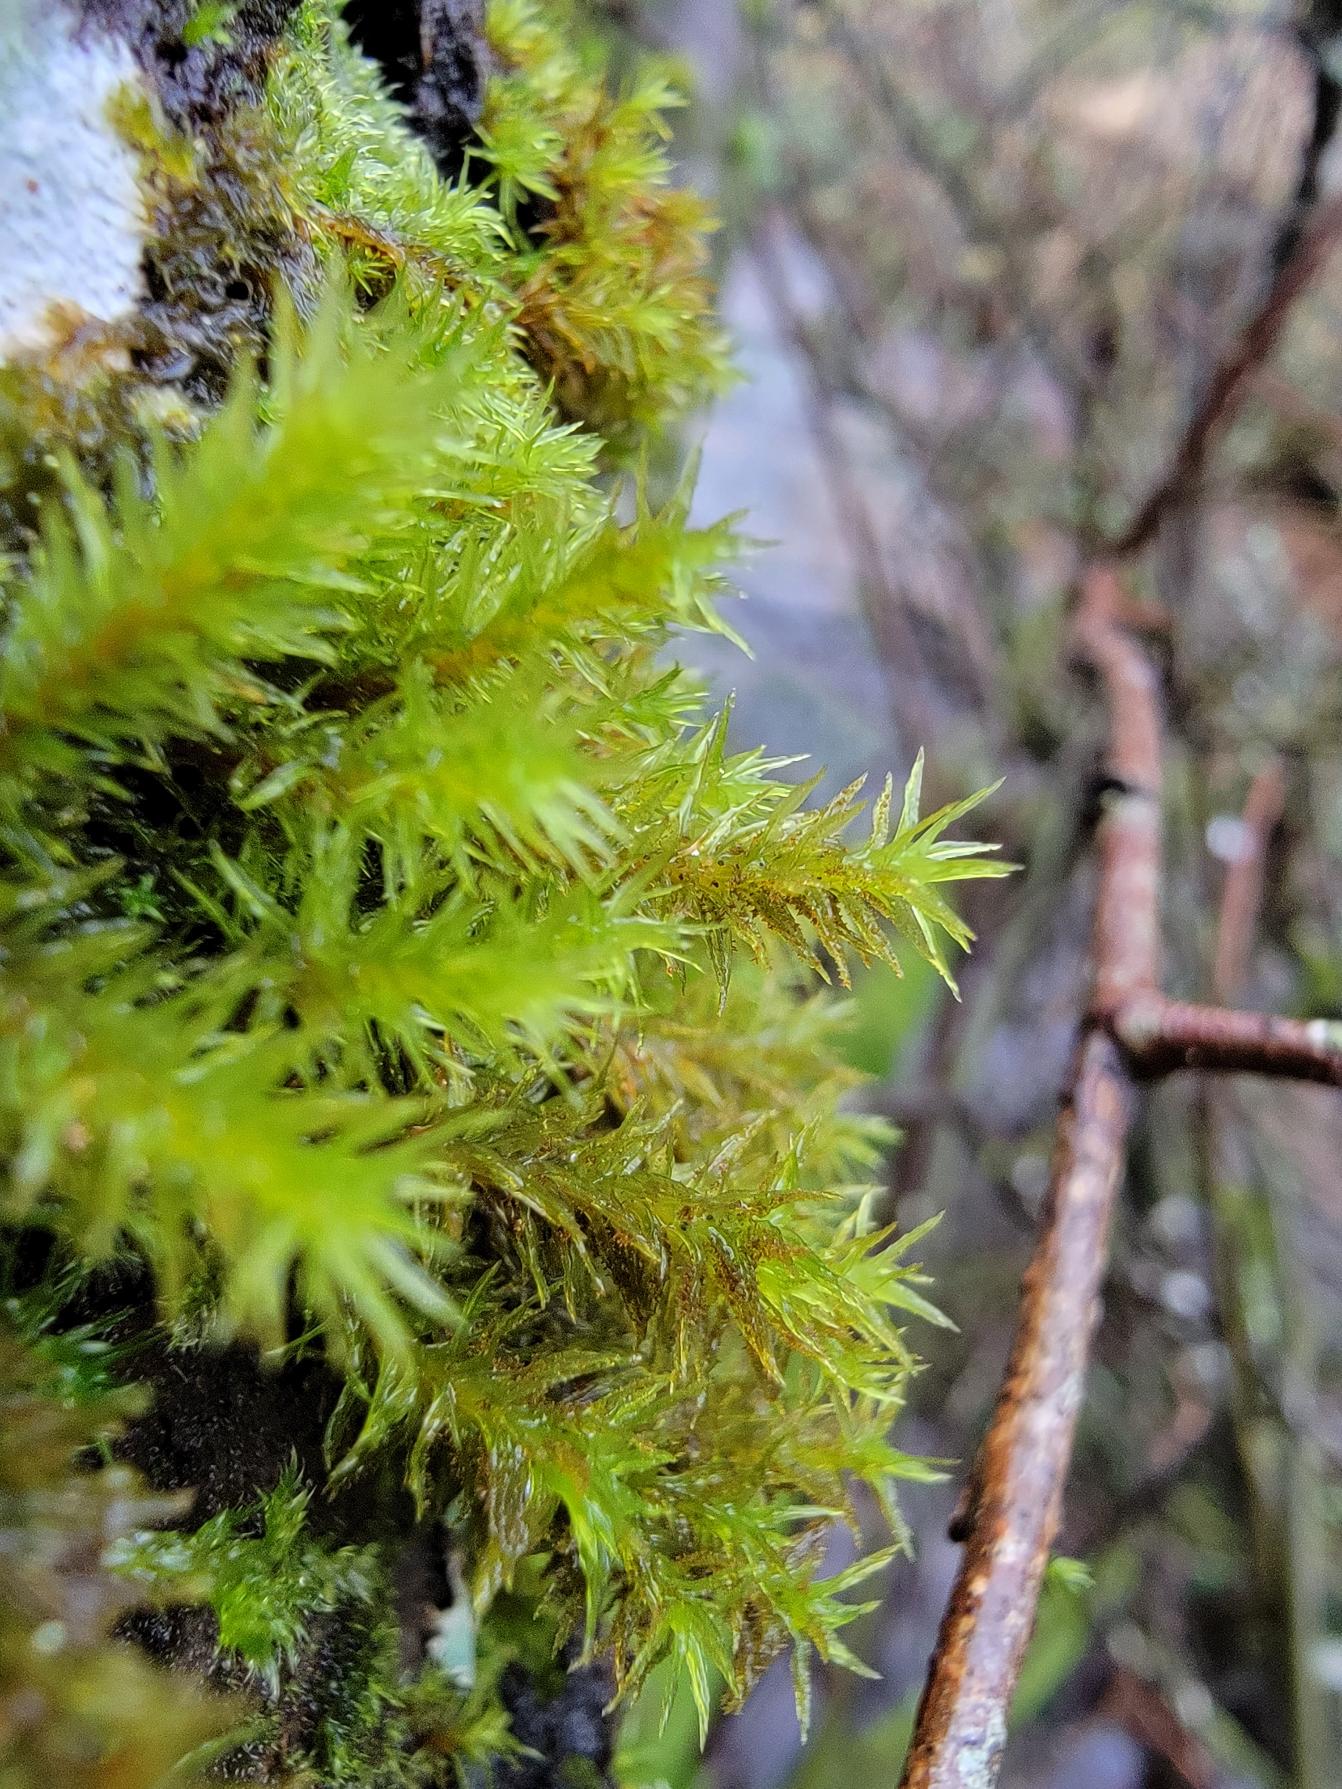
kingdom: Plantae
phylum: Bryophyta
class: Bryopsida
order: Orthotrichales
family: Orthotrichaceae
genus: Pulvigera
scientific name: Pulvigera lyellii
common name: Stor furehætte
